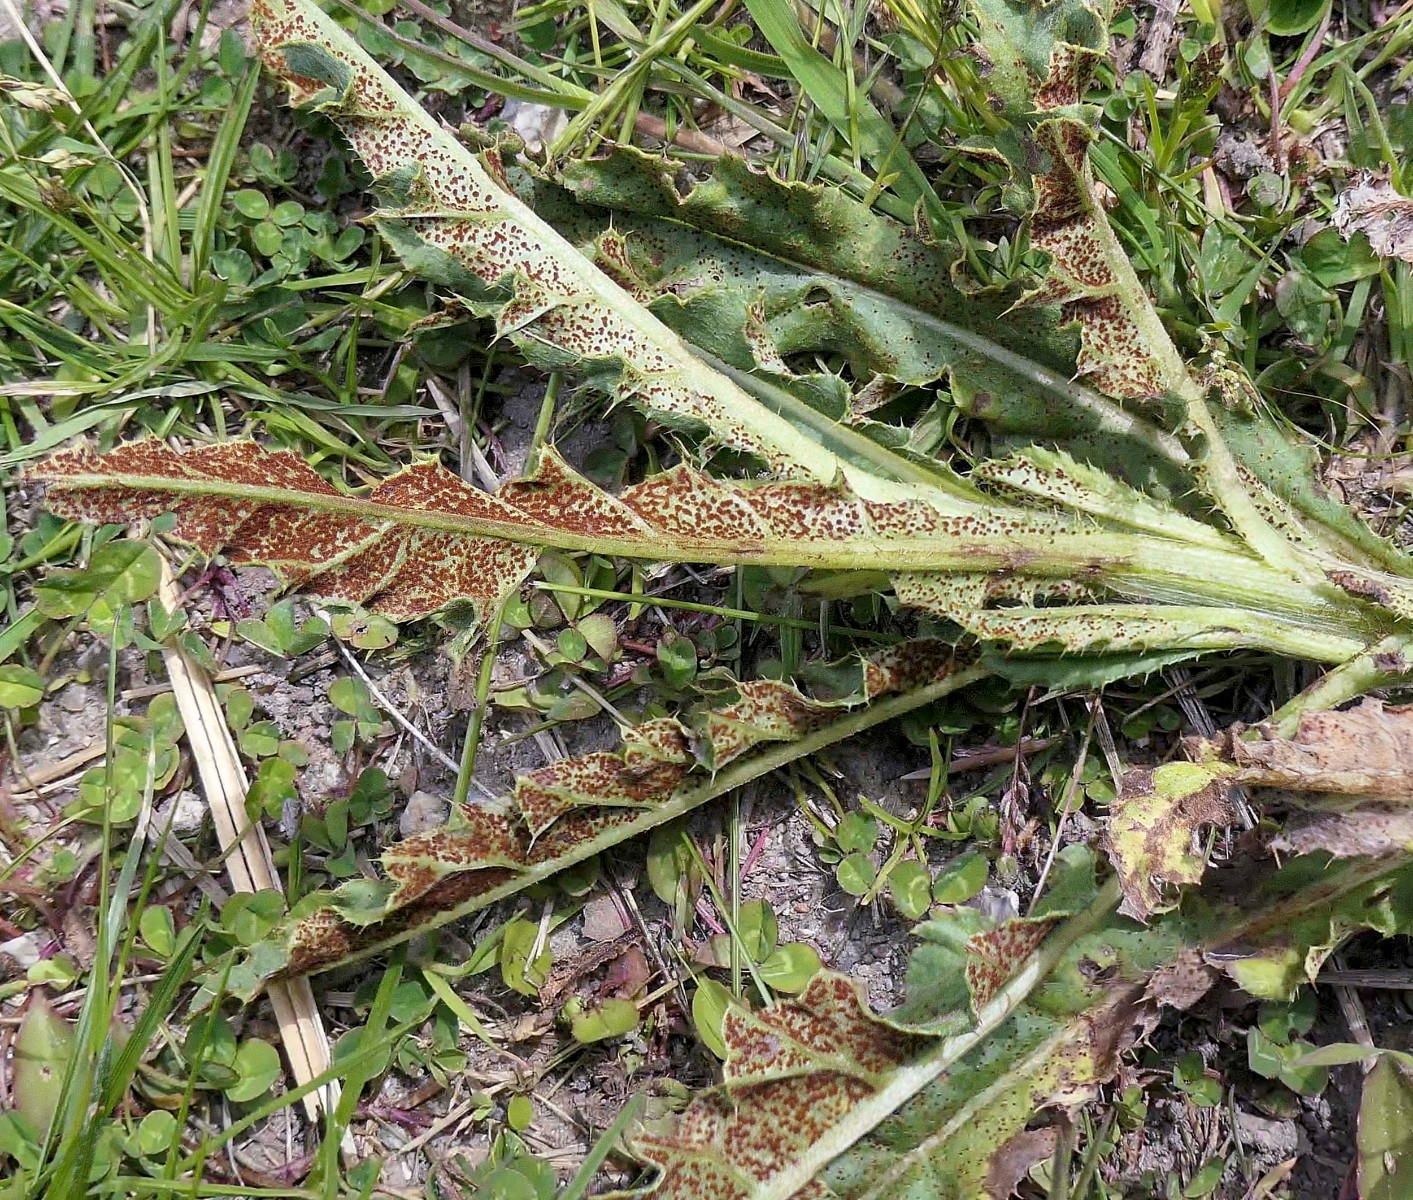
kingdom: Fungi
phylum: Basidiomycota
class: Pucciniomycetes
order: Pucciniales
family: Pucciniaceae
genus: Puccinia
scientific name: Puccinia suaveolens
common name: tidsel-tvecellerust
